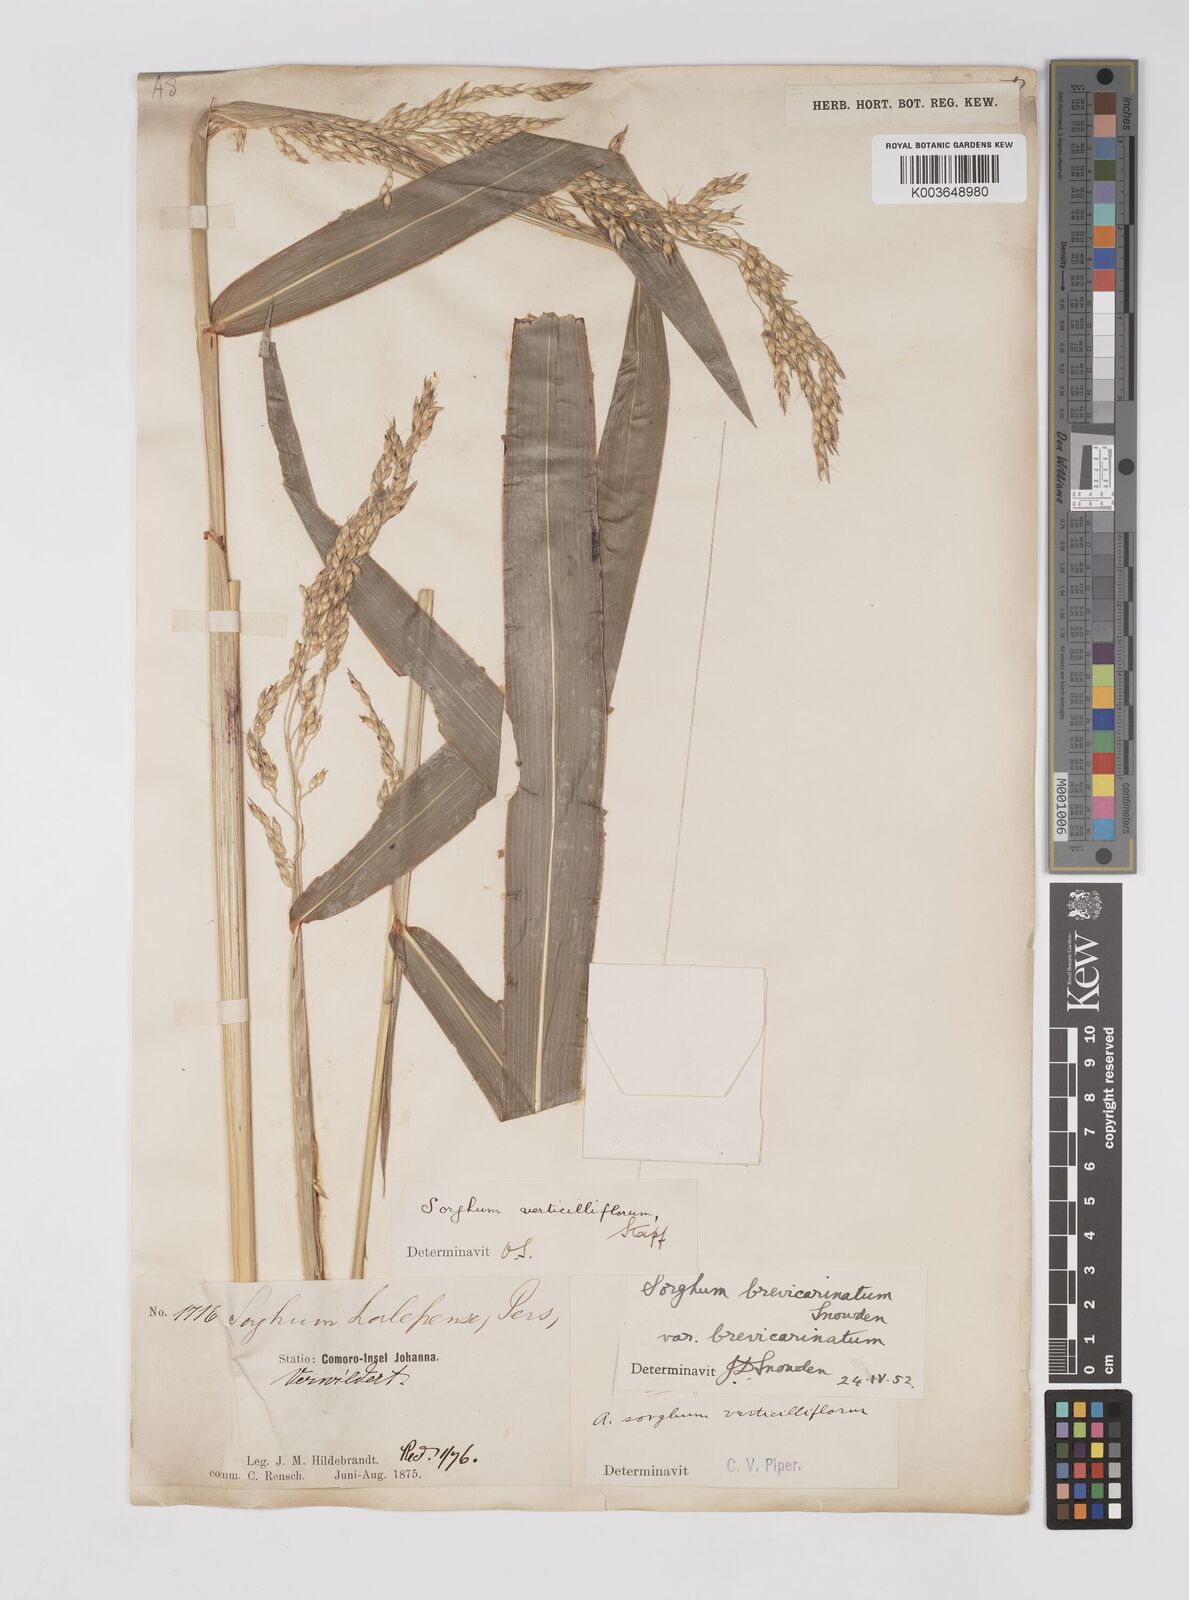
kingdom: Plantae
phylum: Tracheophyta
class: Liliopsida
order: Poales
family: Poaceae
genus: Sorghum
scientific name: Sorghum arundinaceum
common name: Sorghum
